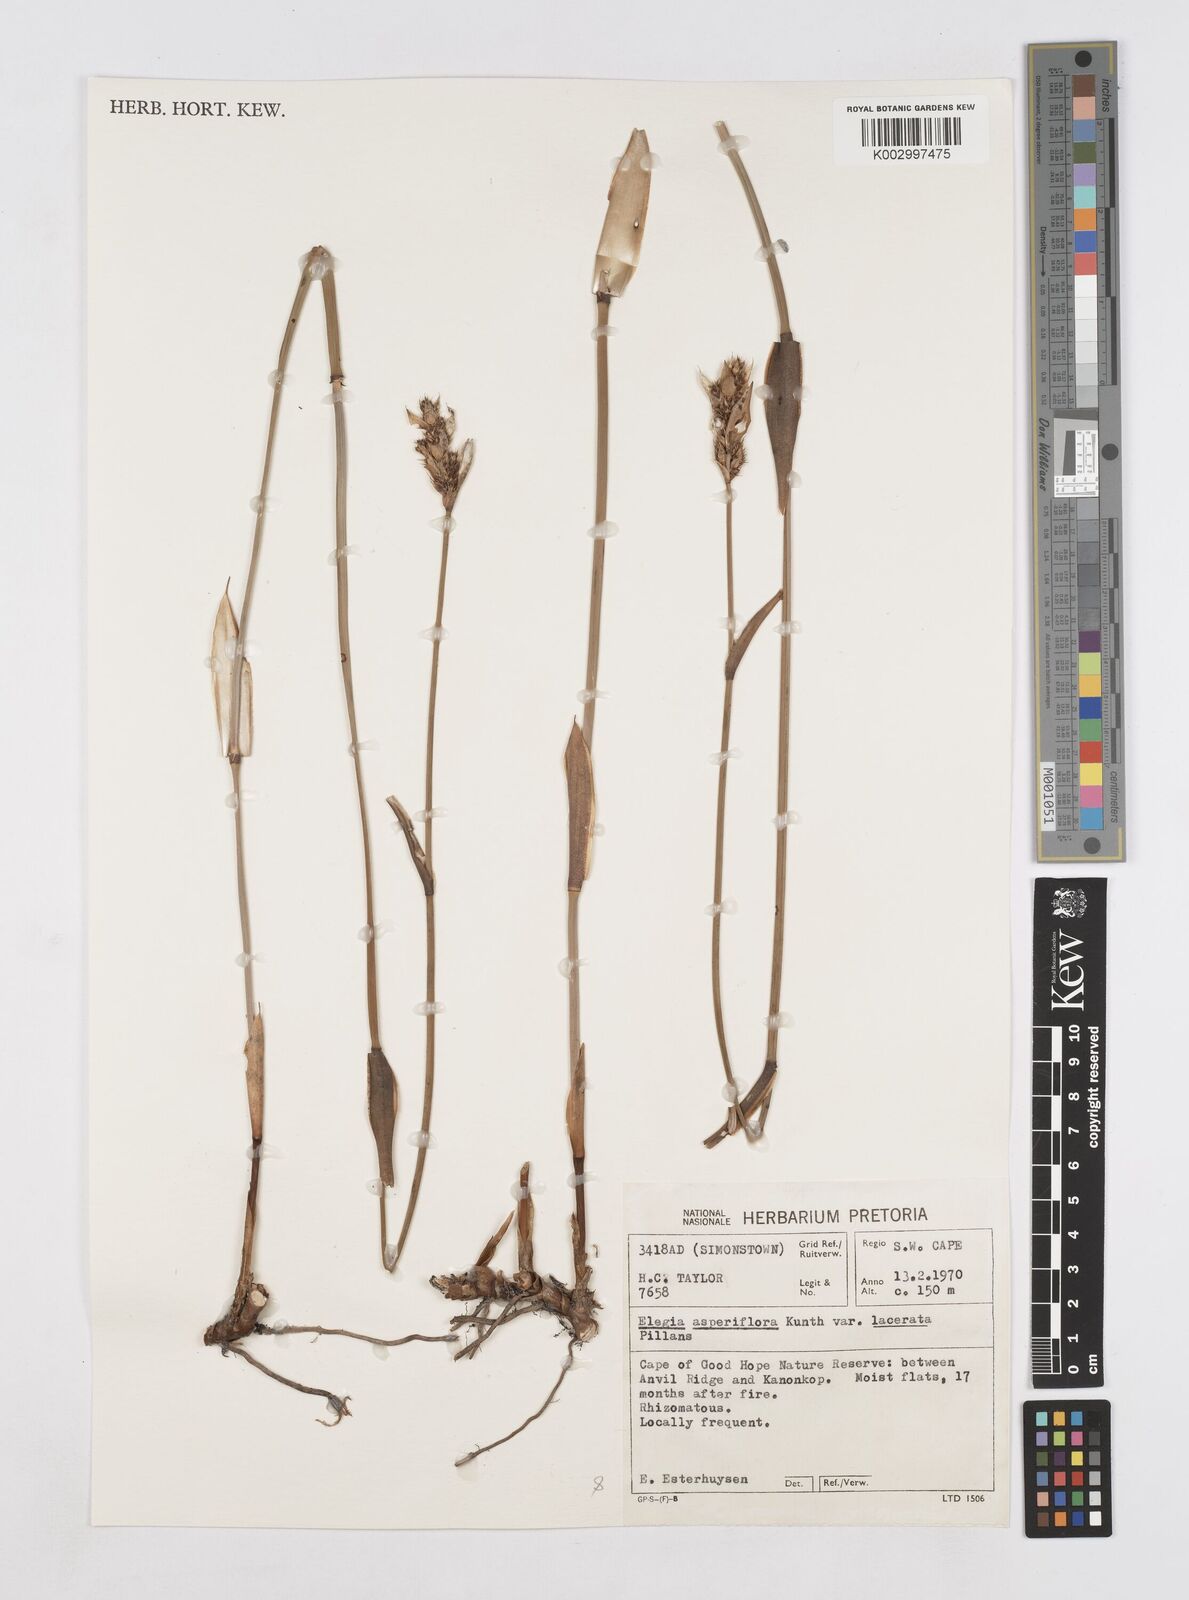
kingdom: Plantae
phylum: Tracheophyta
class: Liliopsida
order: Poales
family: Restionaceae
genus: Elegia
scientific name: Elegia asperiflora
